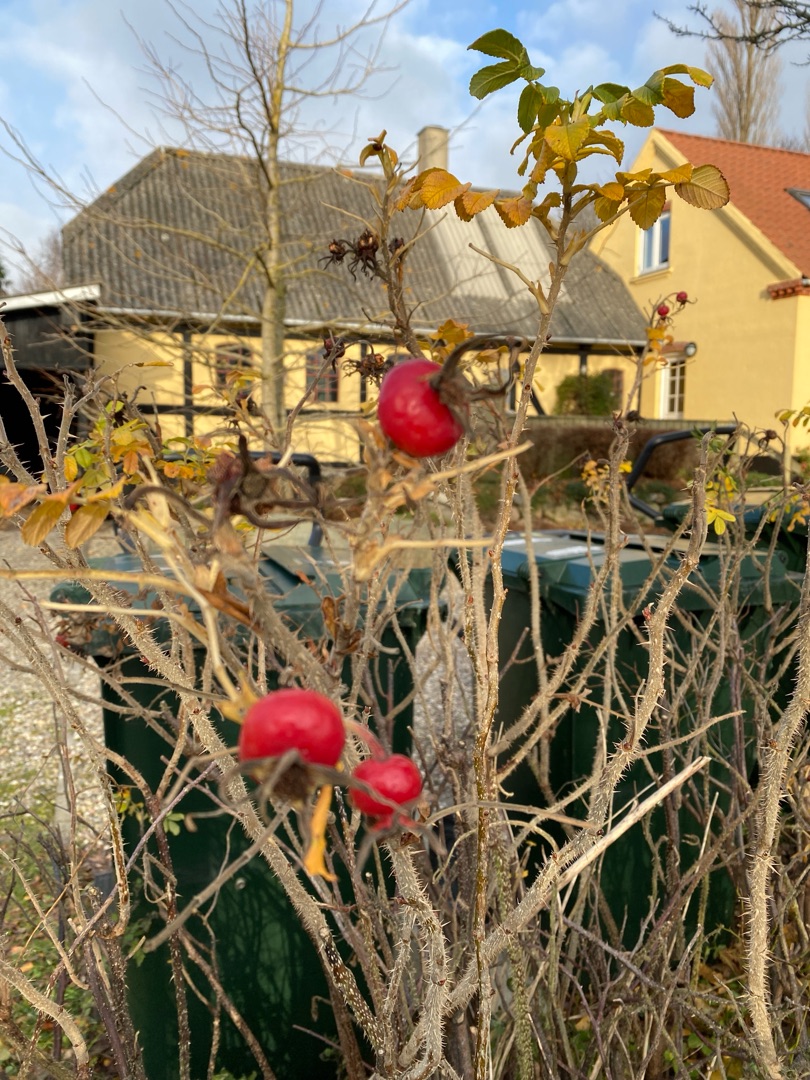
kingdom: Plantae
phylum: Tracheophyta
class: Magnoliopsida
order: Rosales
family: Rosaceae
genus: Rosa
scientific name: Rosa rugosa
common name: Rynket rose
